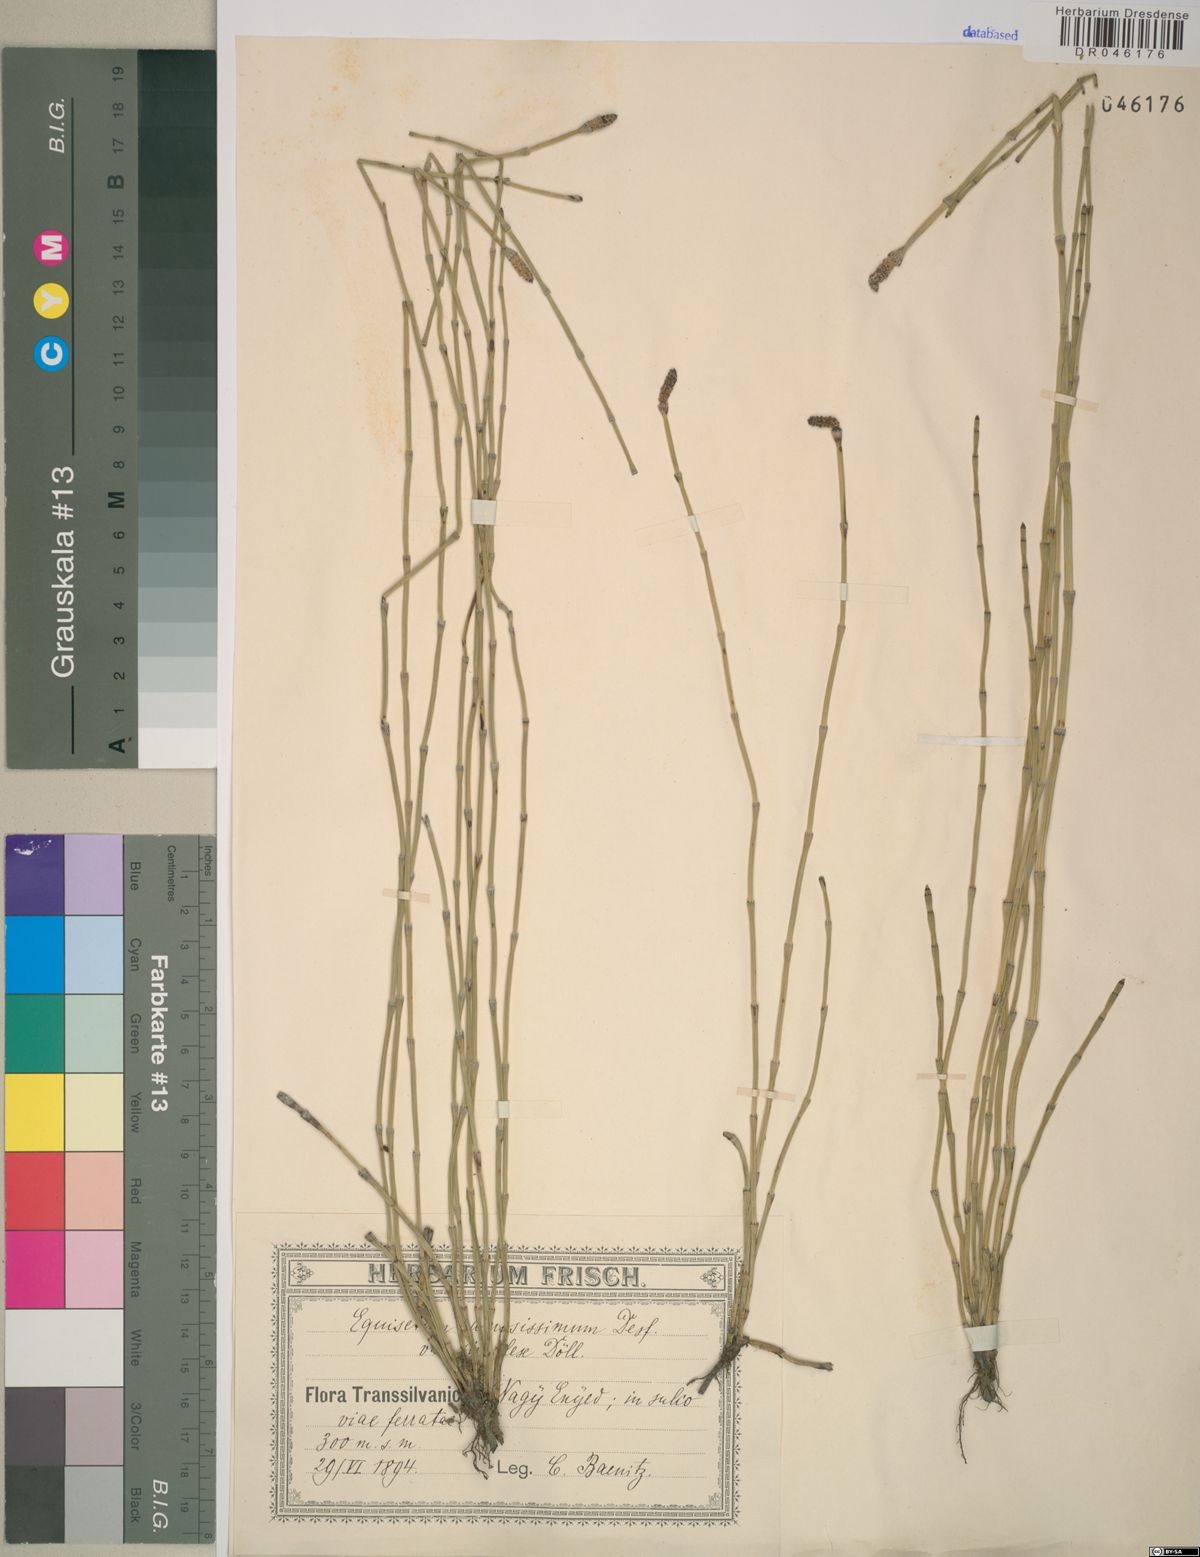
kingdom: Plantae
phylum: Tracheophyta
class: Polypodiopsida
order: Equisetales
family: Equisetaceae
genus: Equisetum
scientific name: Equisetum ramosissimum
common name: Branched horsetail
